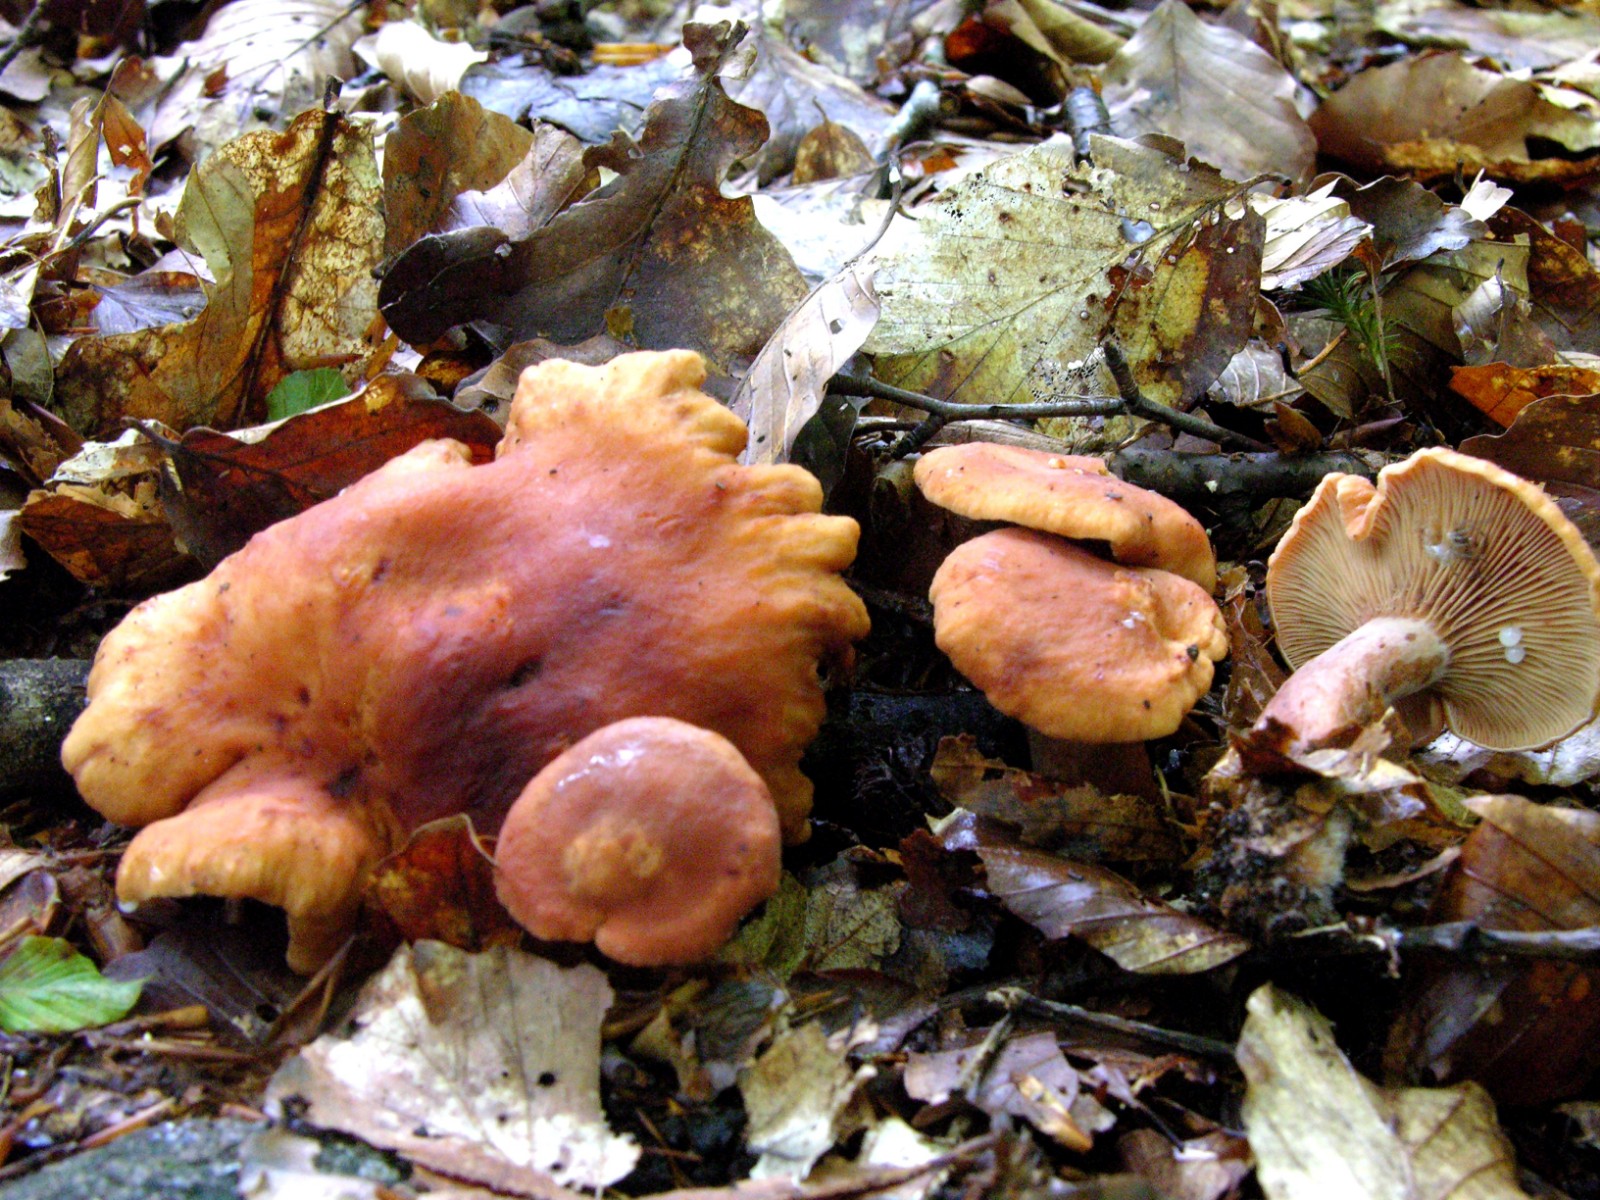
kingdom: Fungi
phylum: Basidiomycota
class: Agaricomycetes
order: Russulales
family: Russulaceae
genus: Lactarius
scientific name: Lactarius fulvissimus
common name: ræve-mælkehat
